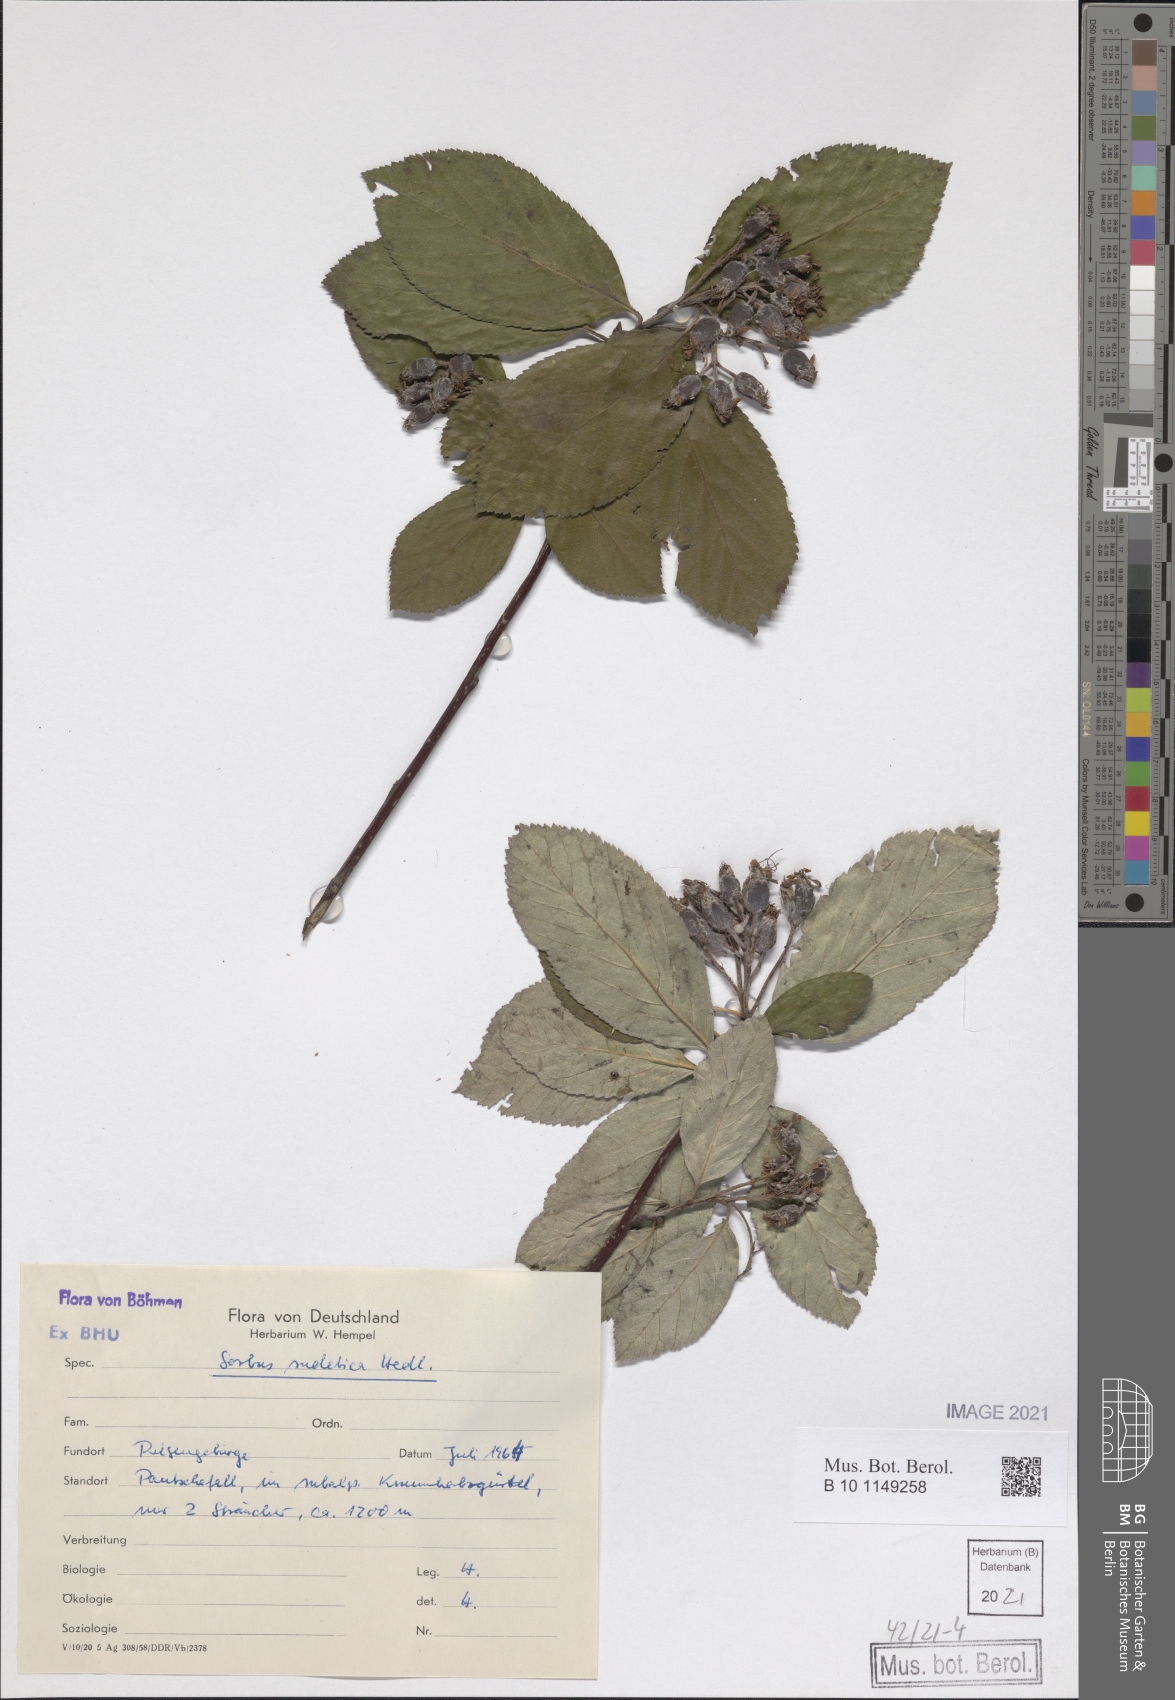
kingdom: Plantae
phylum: Tracheophyta
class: Magnoliopsida
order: Rosales
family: Rosaceae
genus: Sorbus
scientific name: Sorbus sudetica
